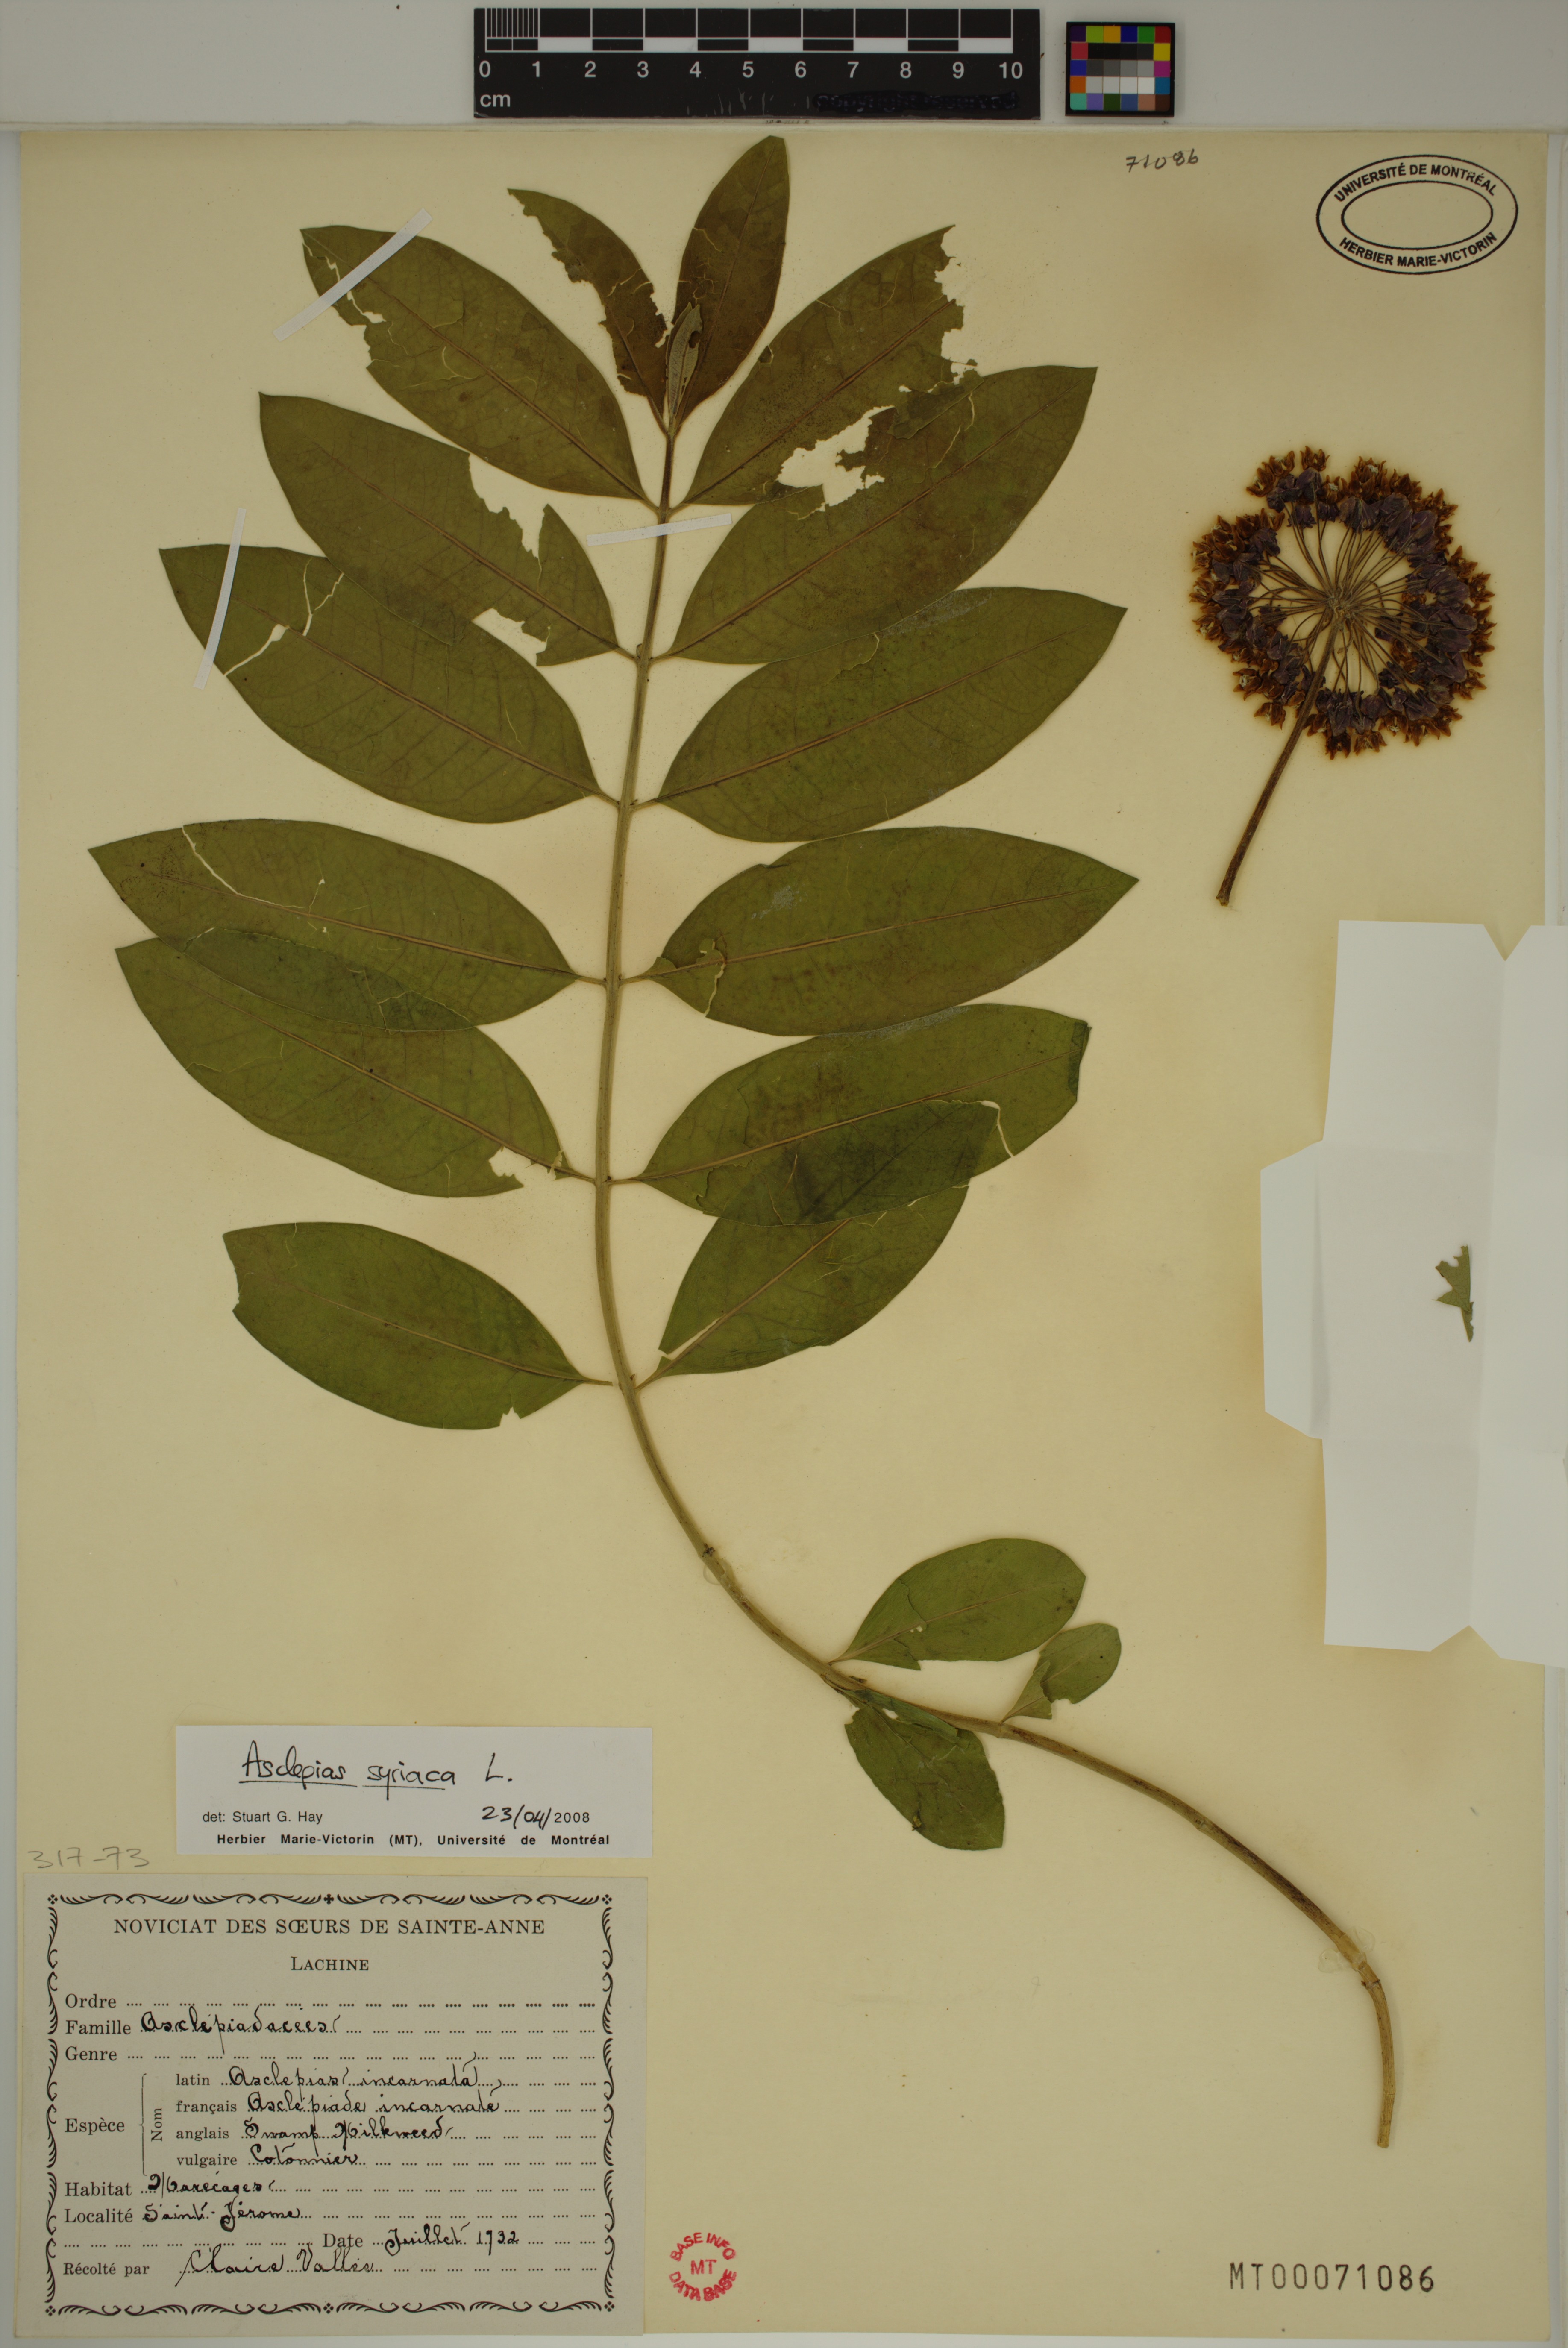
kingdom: Plantae
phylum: Tracheophyta
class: Magnoliopsida
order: Gentianales
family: Apocynaceae
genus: Asclepias
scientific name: Asclepias syriaca
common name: Common milkweed
